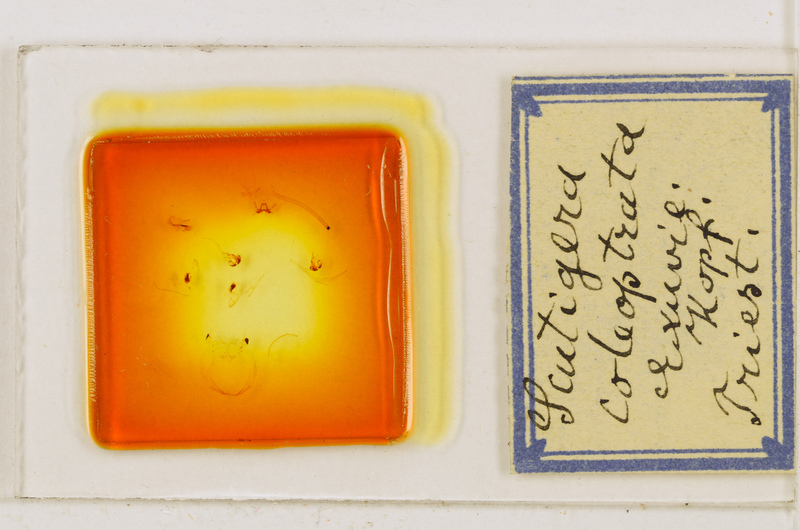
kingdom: Animalia
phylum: Arthropoda
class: Chilopoda
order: Scutigeromorpha
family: Scutigeridae
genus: Scutigera
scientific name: Scutigera coleoptrata
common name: House centipede
